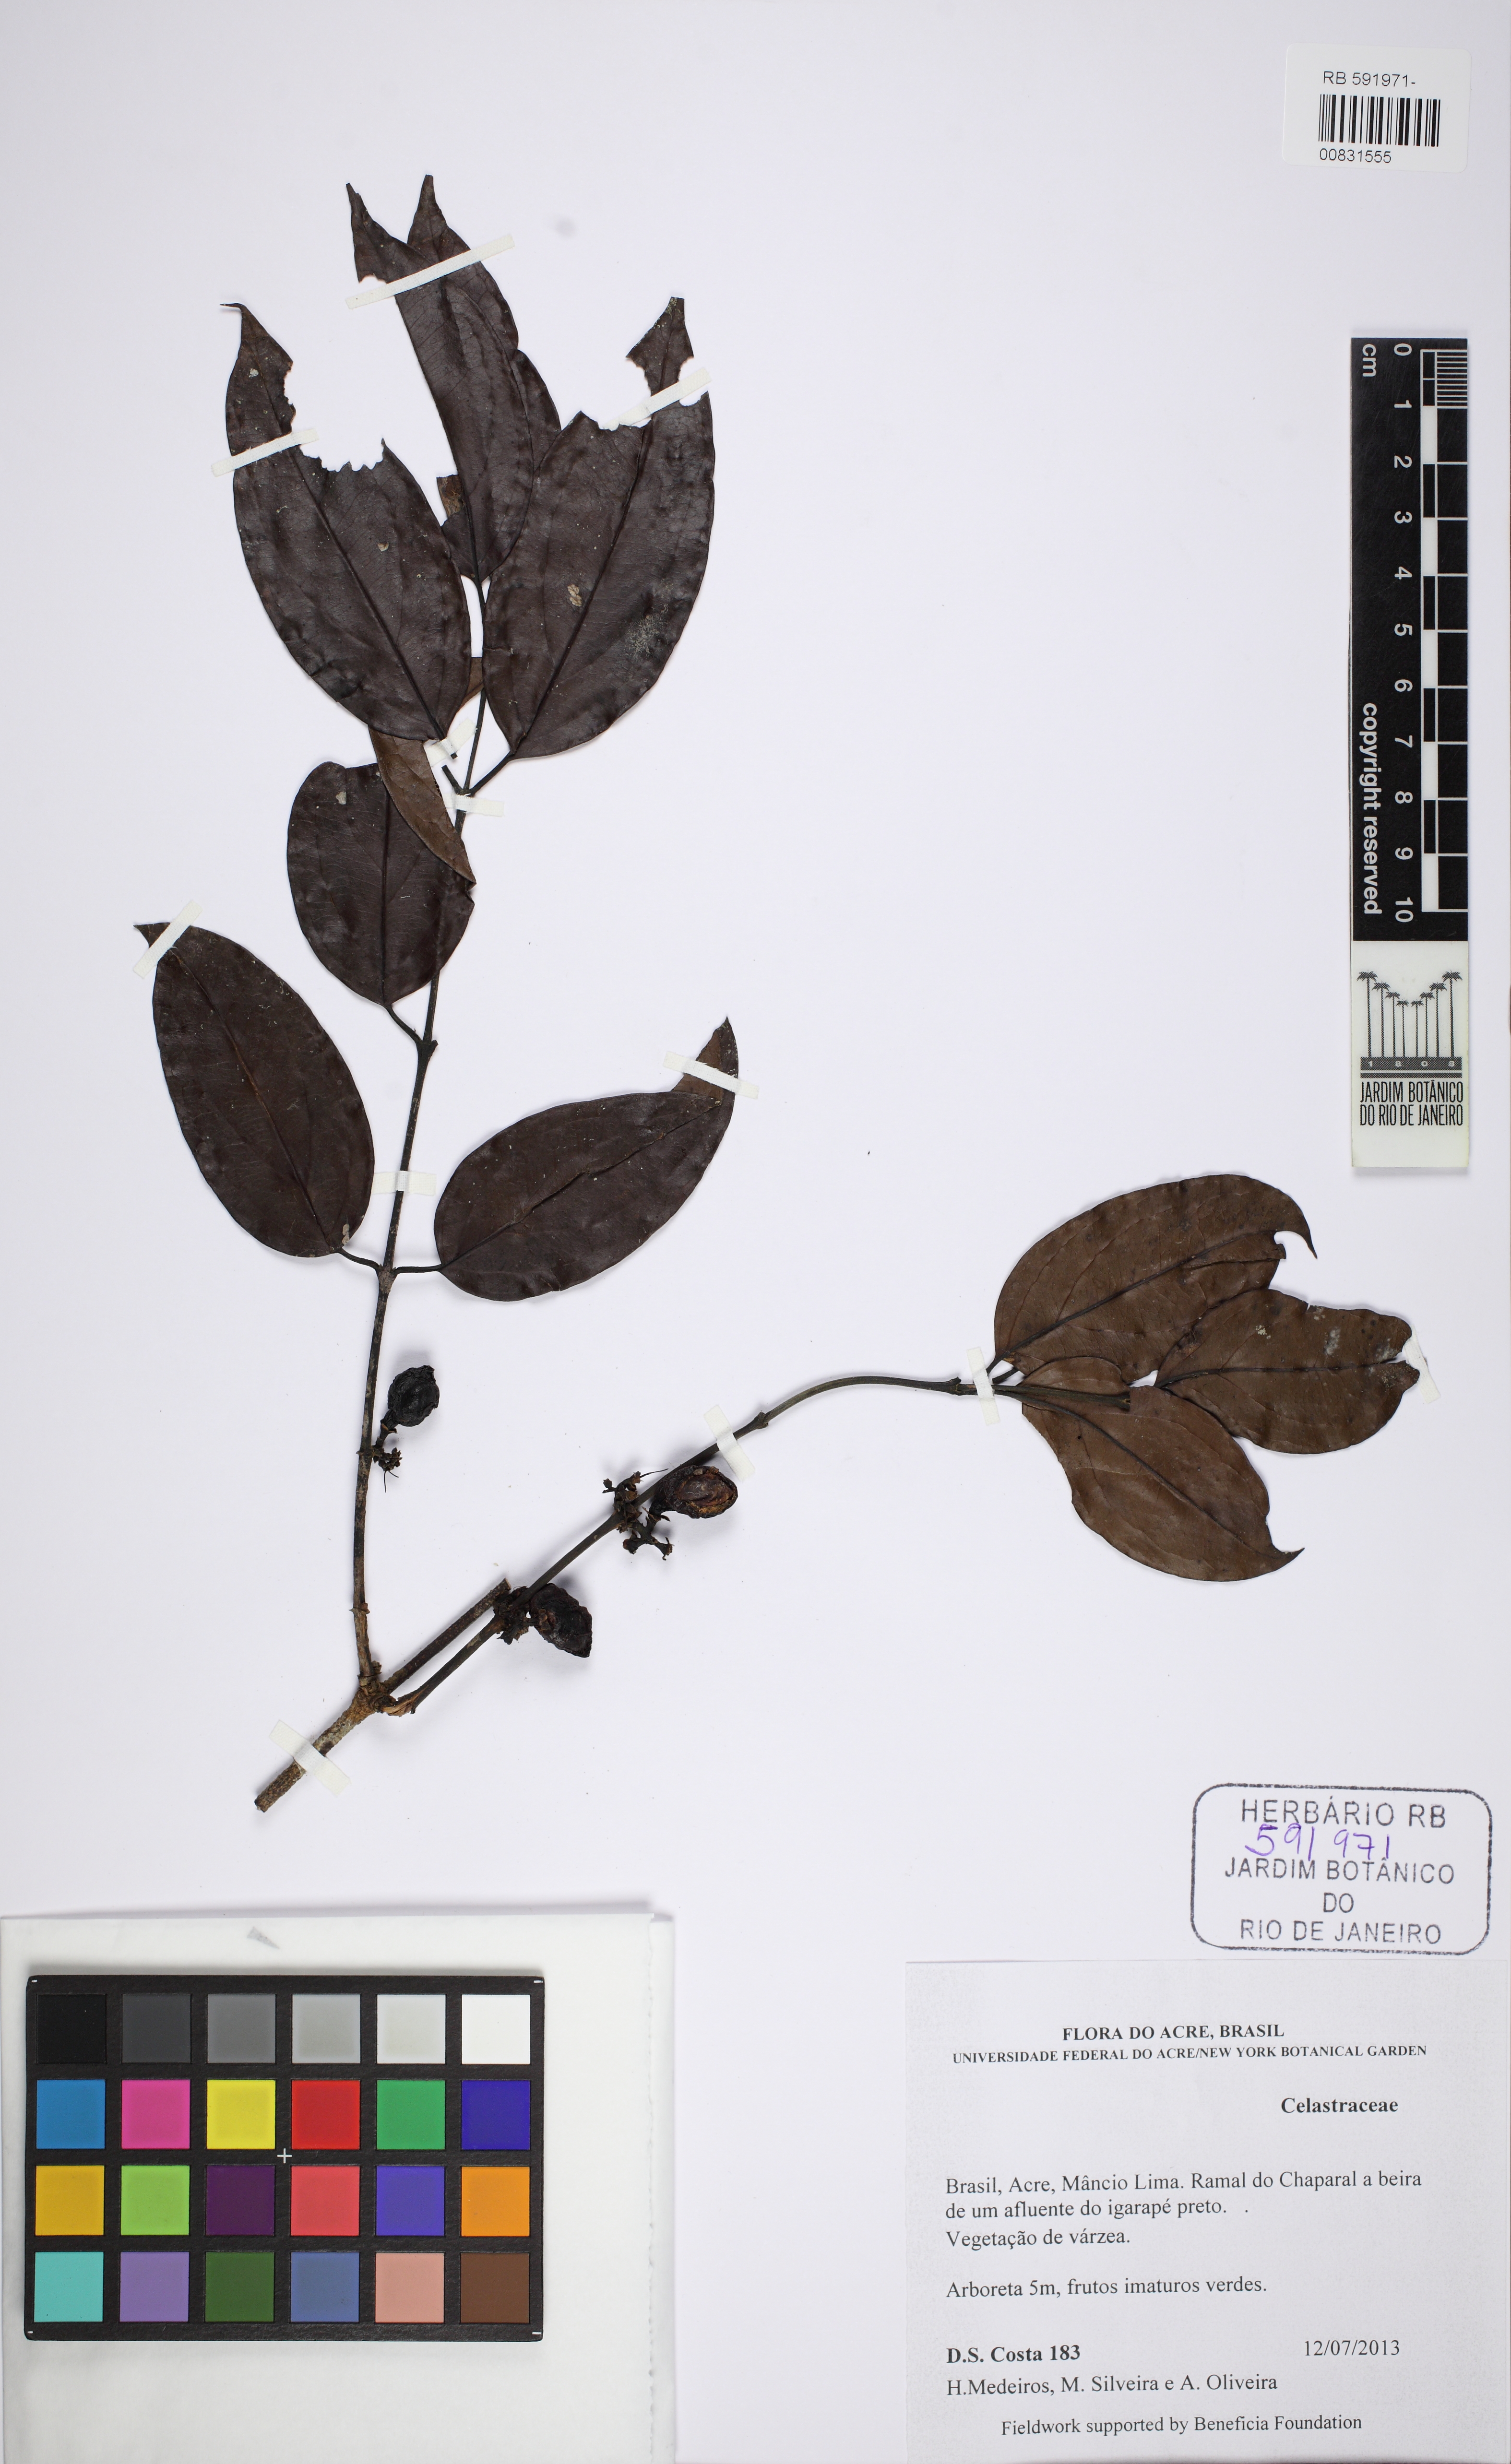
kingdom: Plantae
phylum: Tracheophyta
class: Magnoliopsida
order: Celastrales
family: Celastraceae
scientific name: Celastraceae
